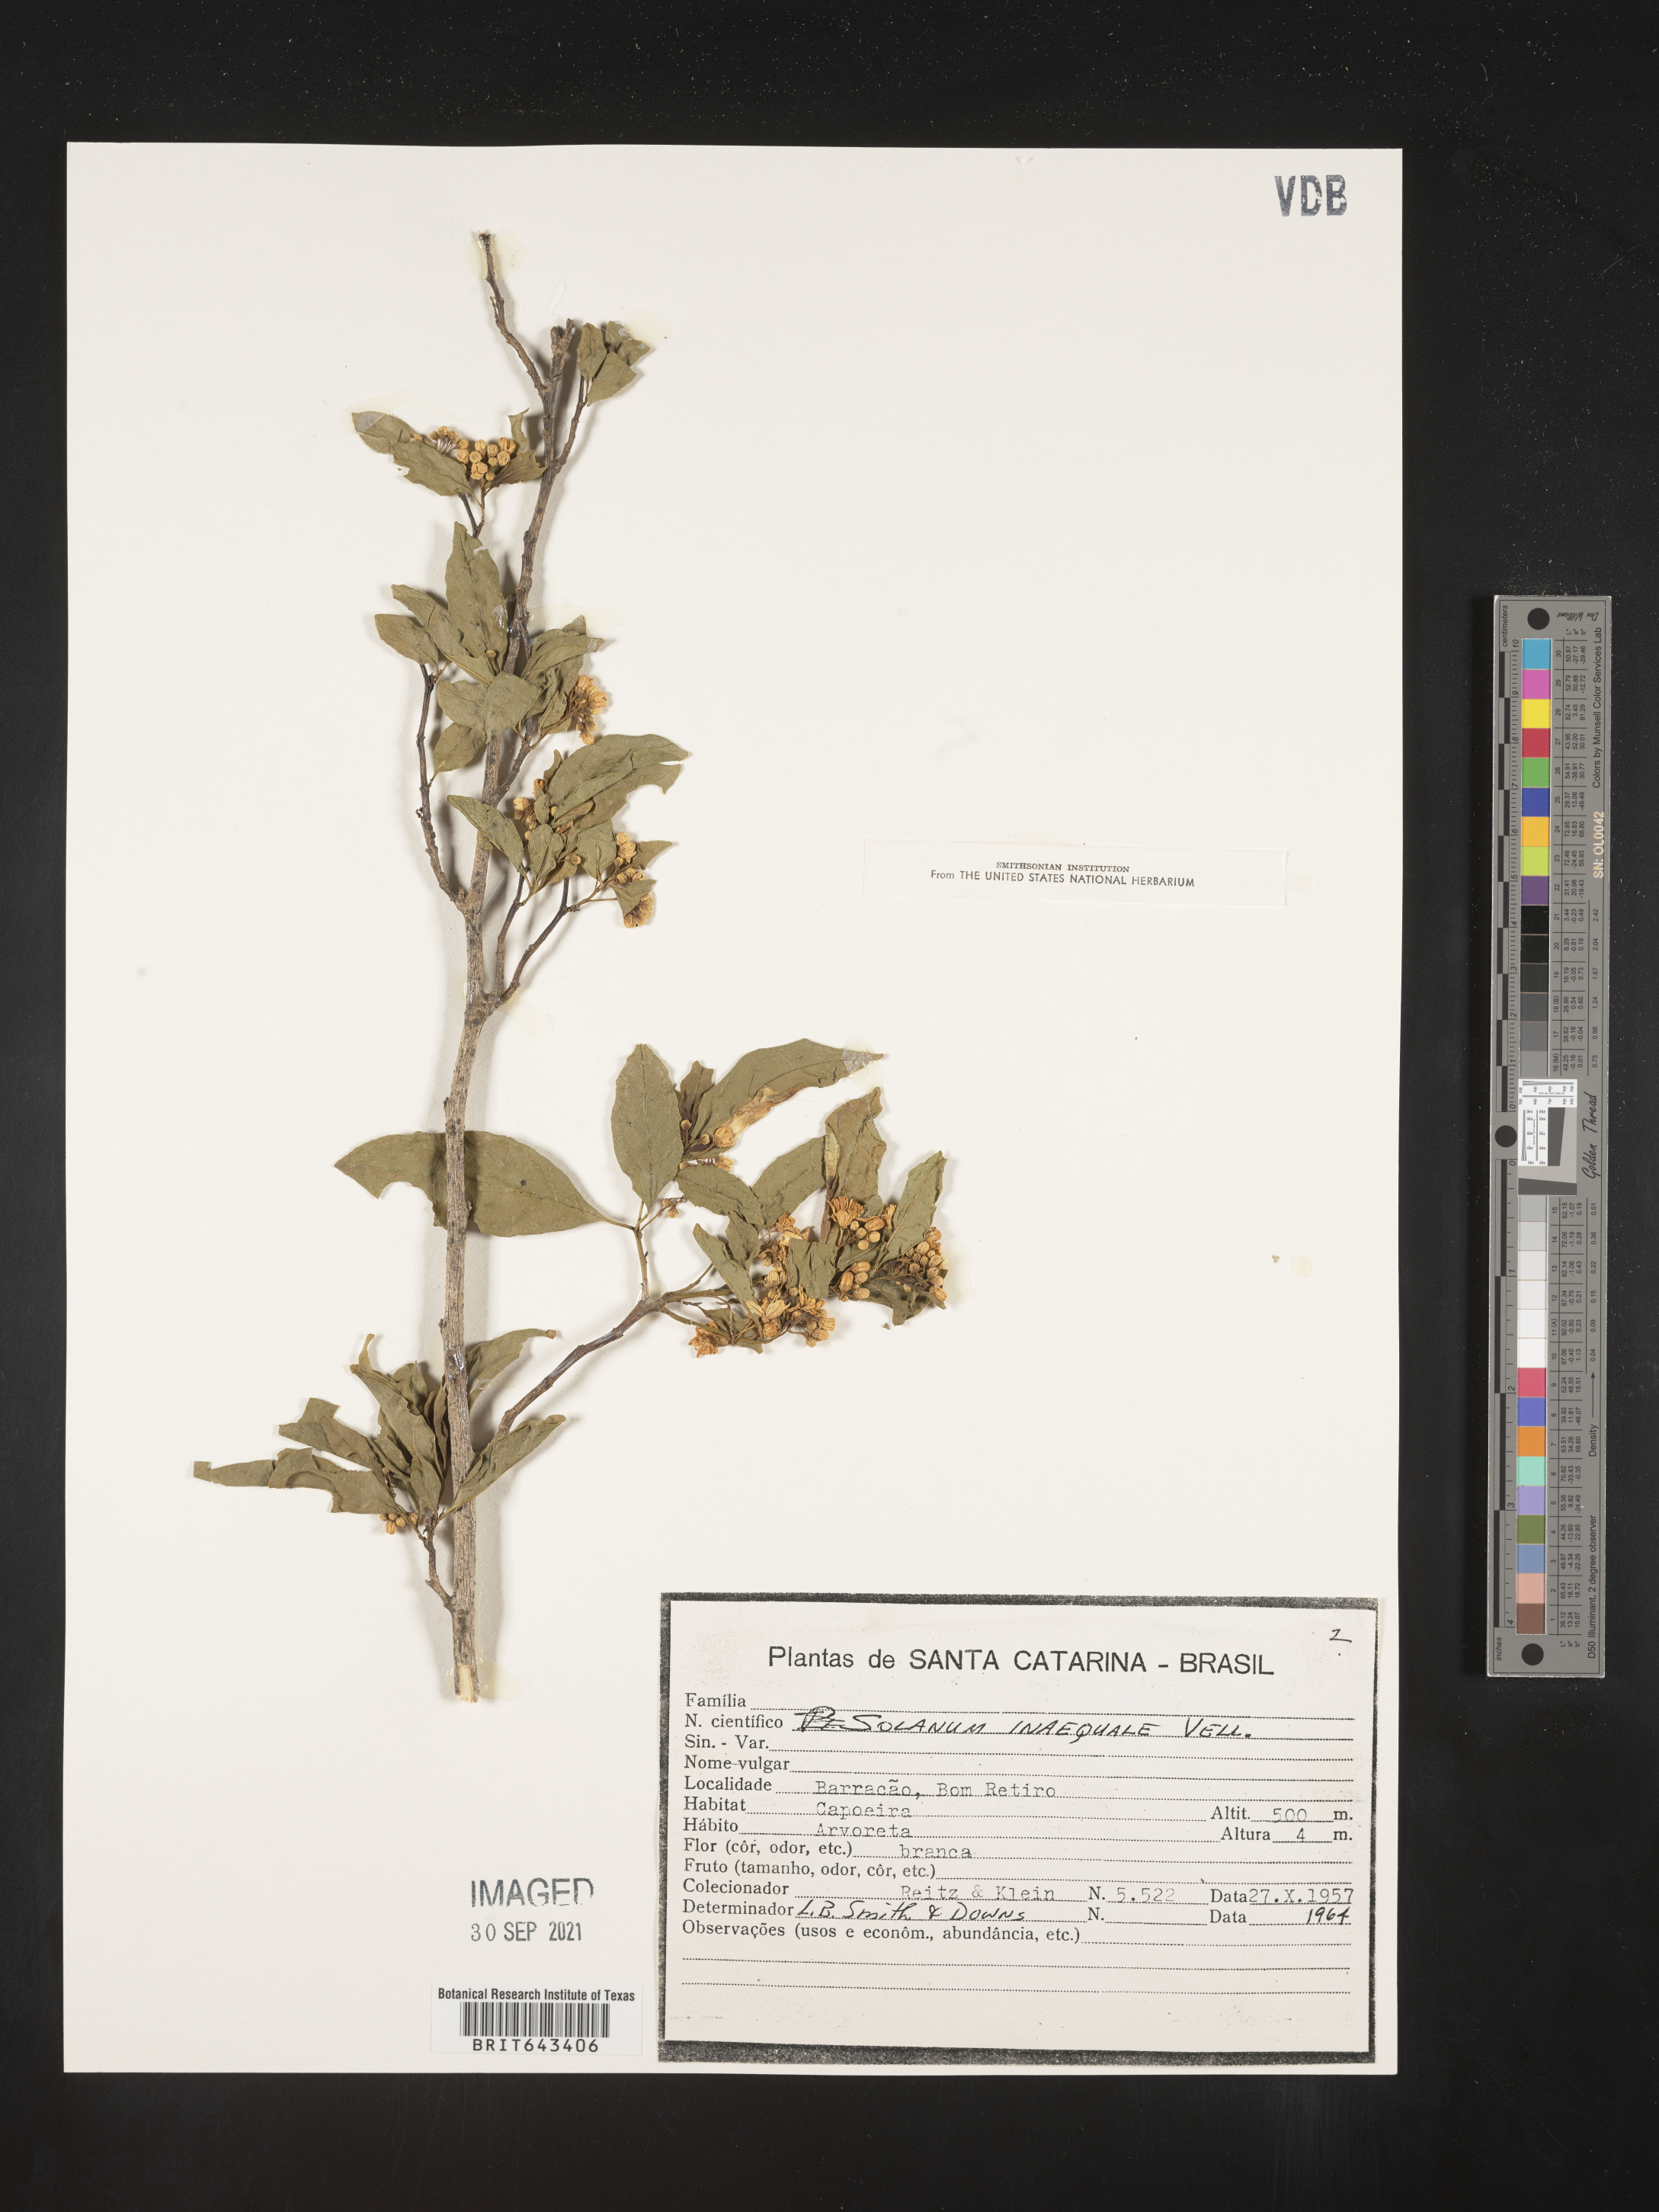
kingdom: Plantae
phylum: Tracheophyta
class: Magnoliopsida
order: Solanales
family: Solanaceae
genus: Solanum
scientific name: Solanum
